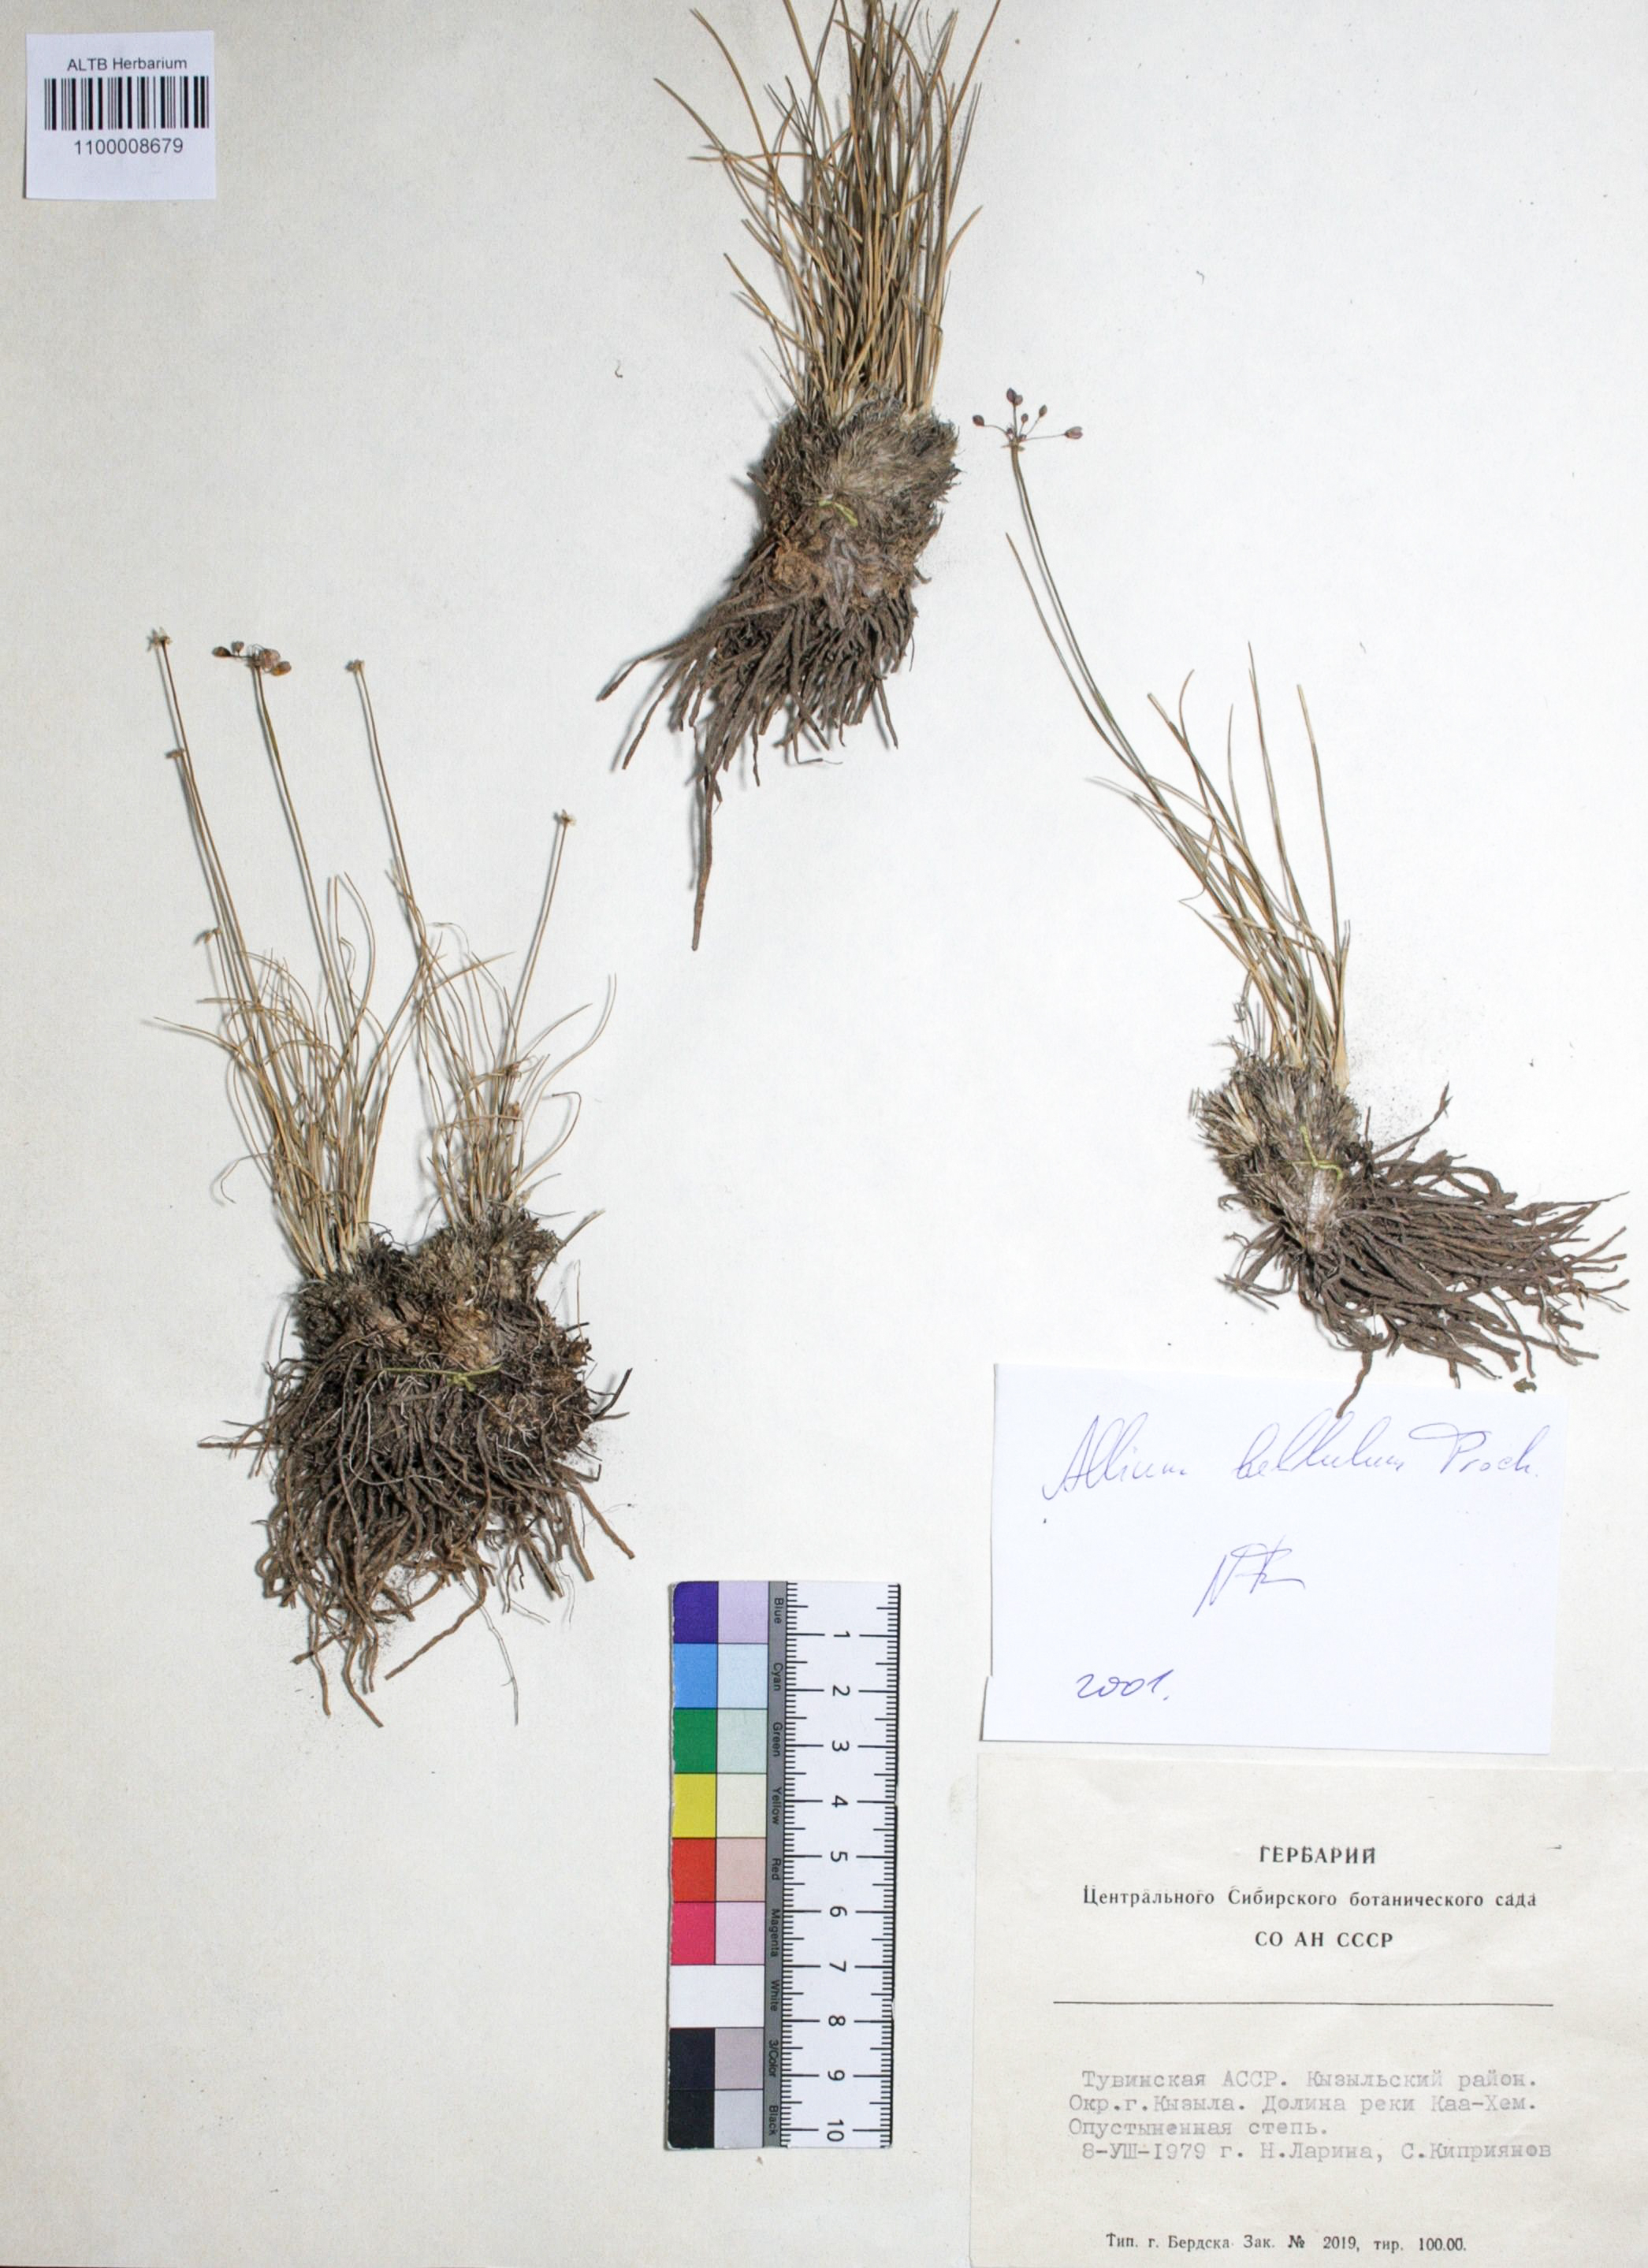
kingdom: Plantae
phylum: Tracheophyta
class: Liliopsida
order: Asparagales
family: Amaryllidaceae
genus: Allium
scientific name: Allium bellulum
